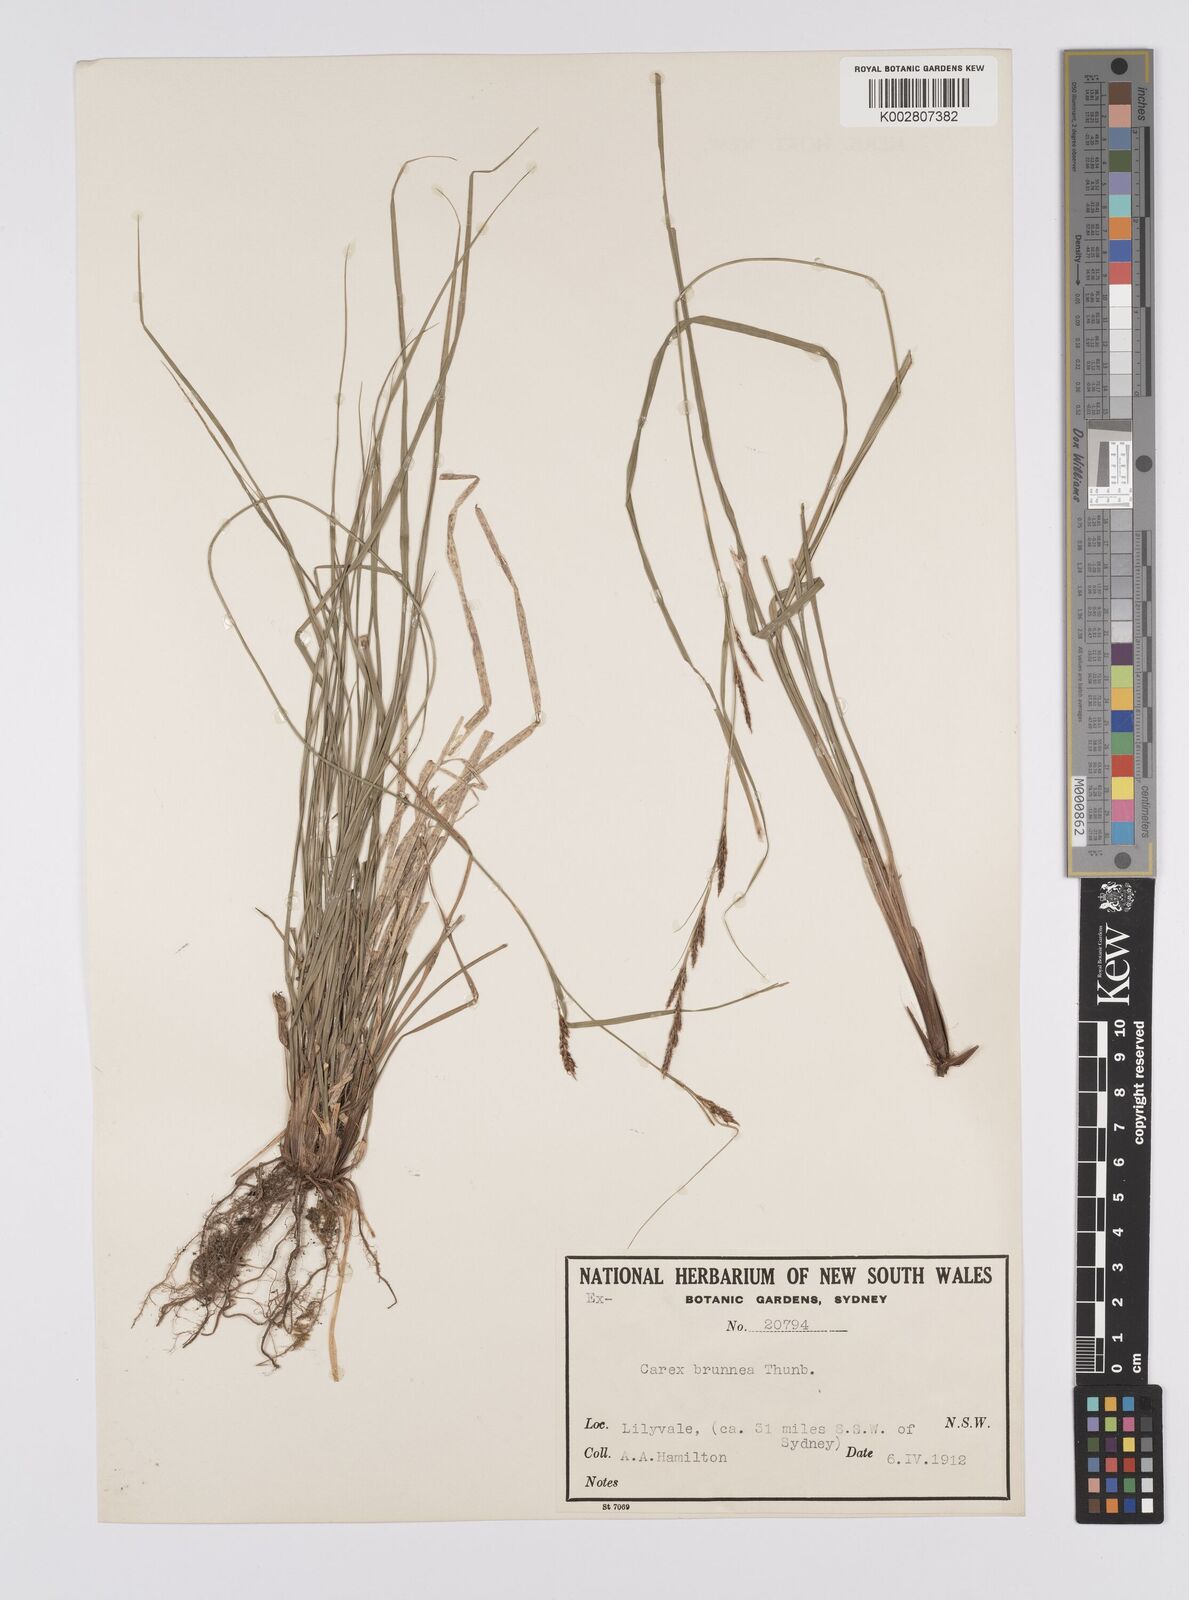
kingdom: Plantae
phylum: Tracheophyta
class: Liliopsida
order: Poales
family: Cyperaceae
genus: Carex
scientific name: Carex brunnea
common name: Greater brown sedge
